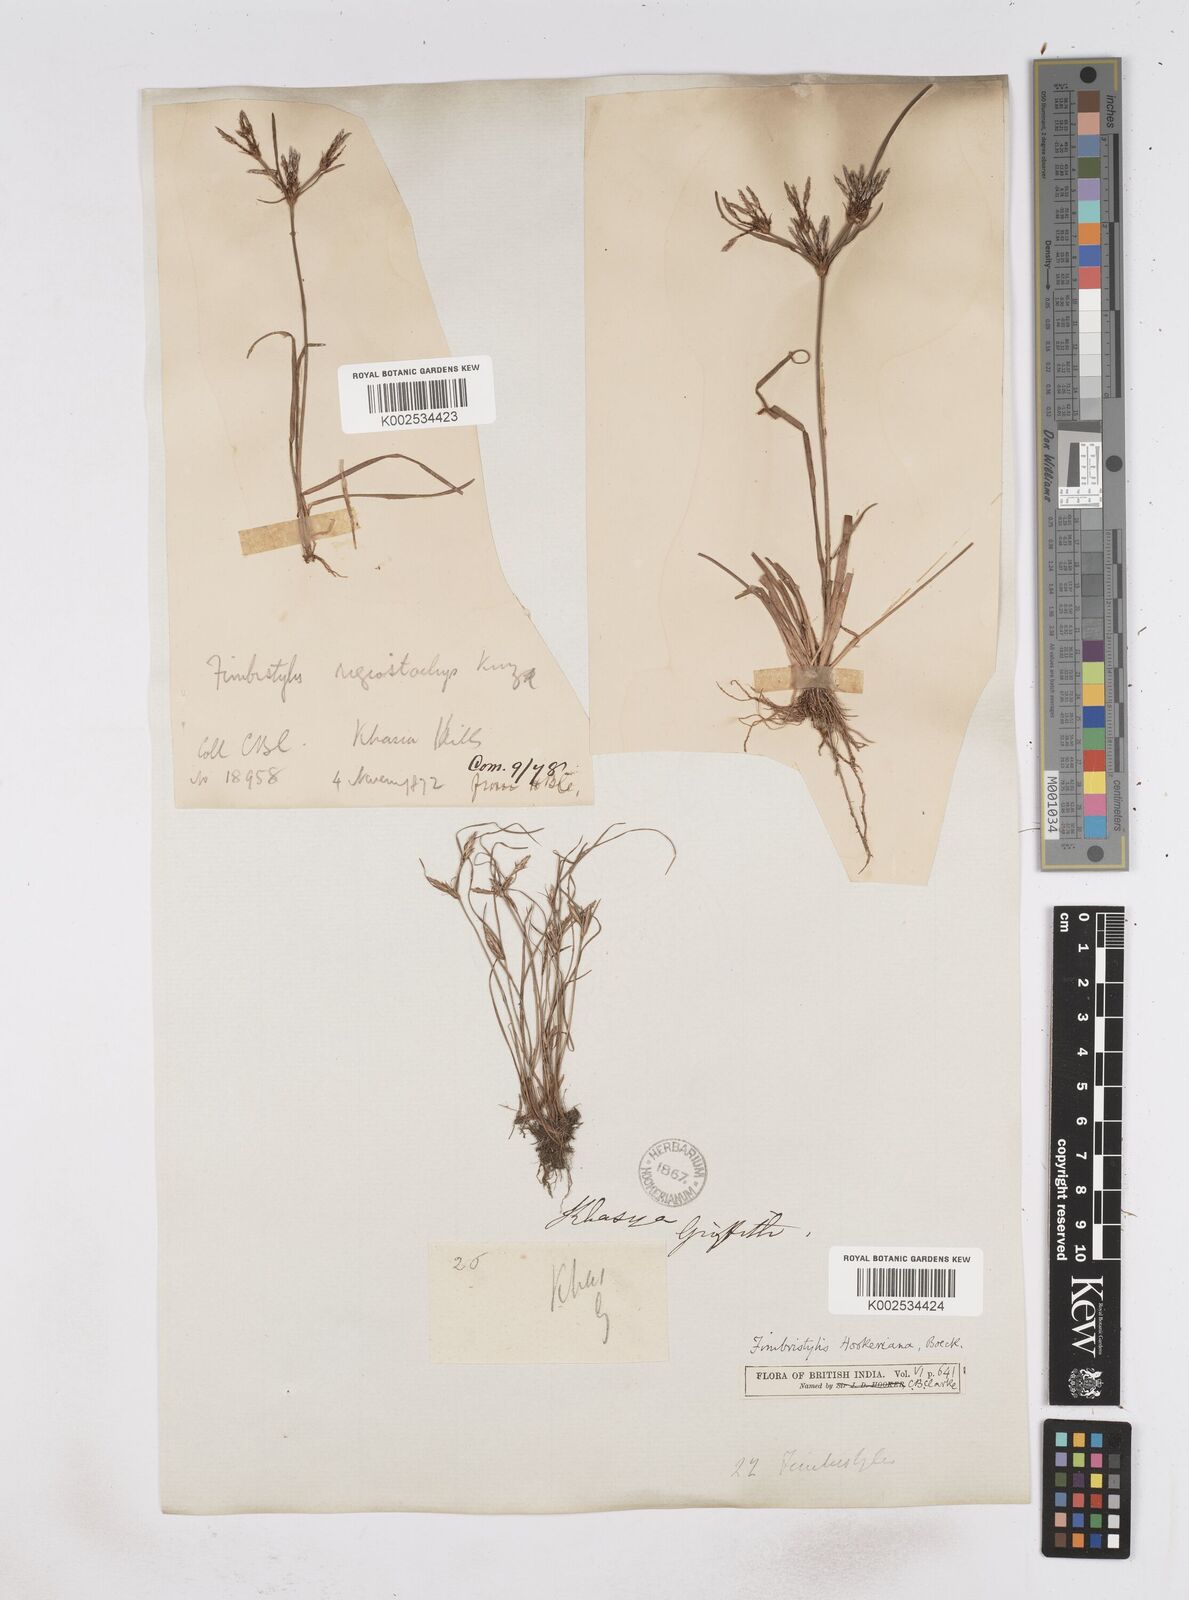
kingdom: Plantae
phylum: Tracheophyta
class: Liliopsida
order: Poales
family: Cyperaceae
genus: Fimbristylis
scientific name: Fimbristylis hookeriana
